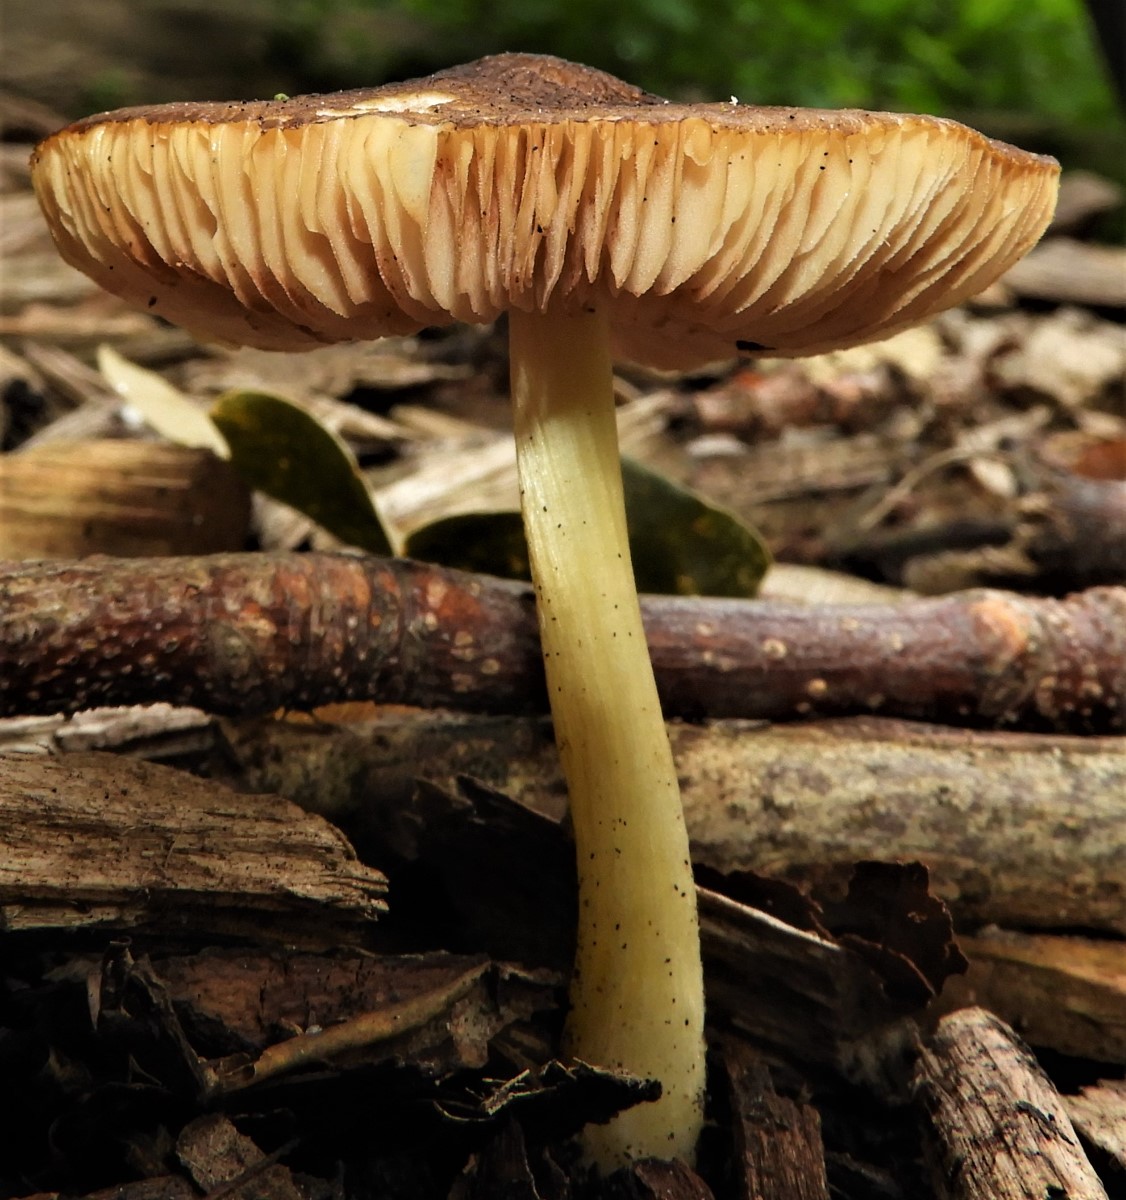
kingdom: Fungi
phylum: Basidiomycota
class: Agaricomycetes
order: Agaricales
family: Pluteaceae
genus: Pluteus
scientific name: Pluteus romellii
